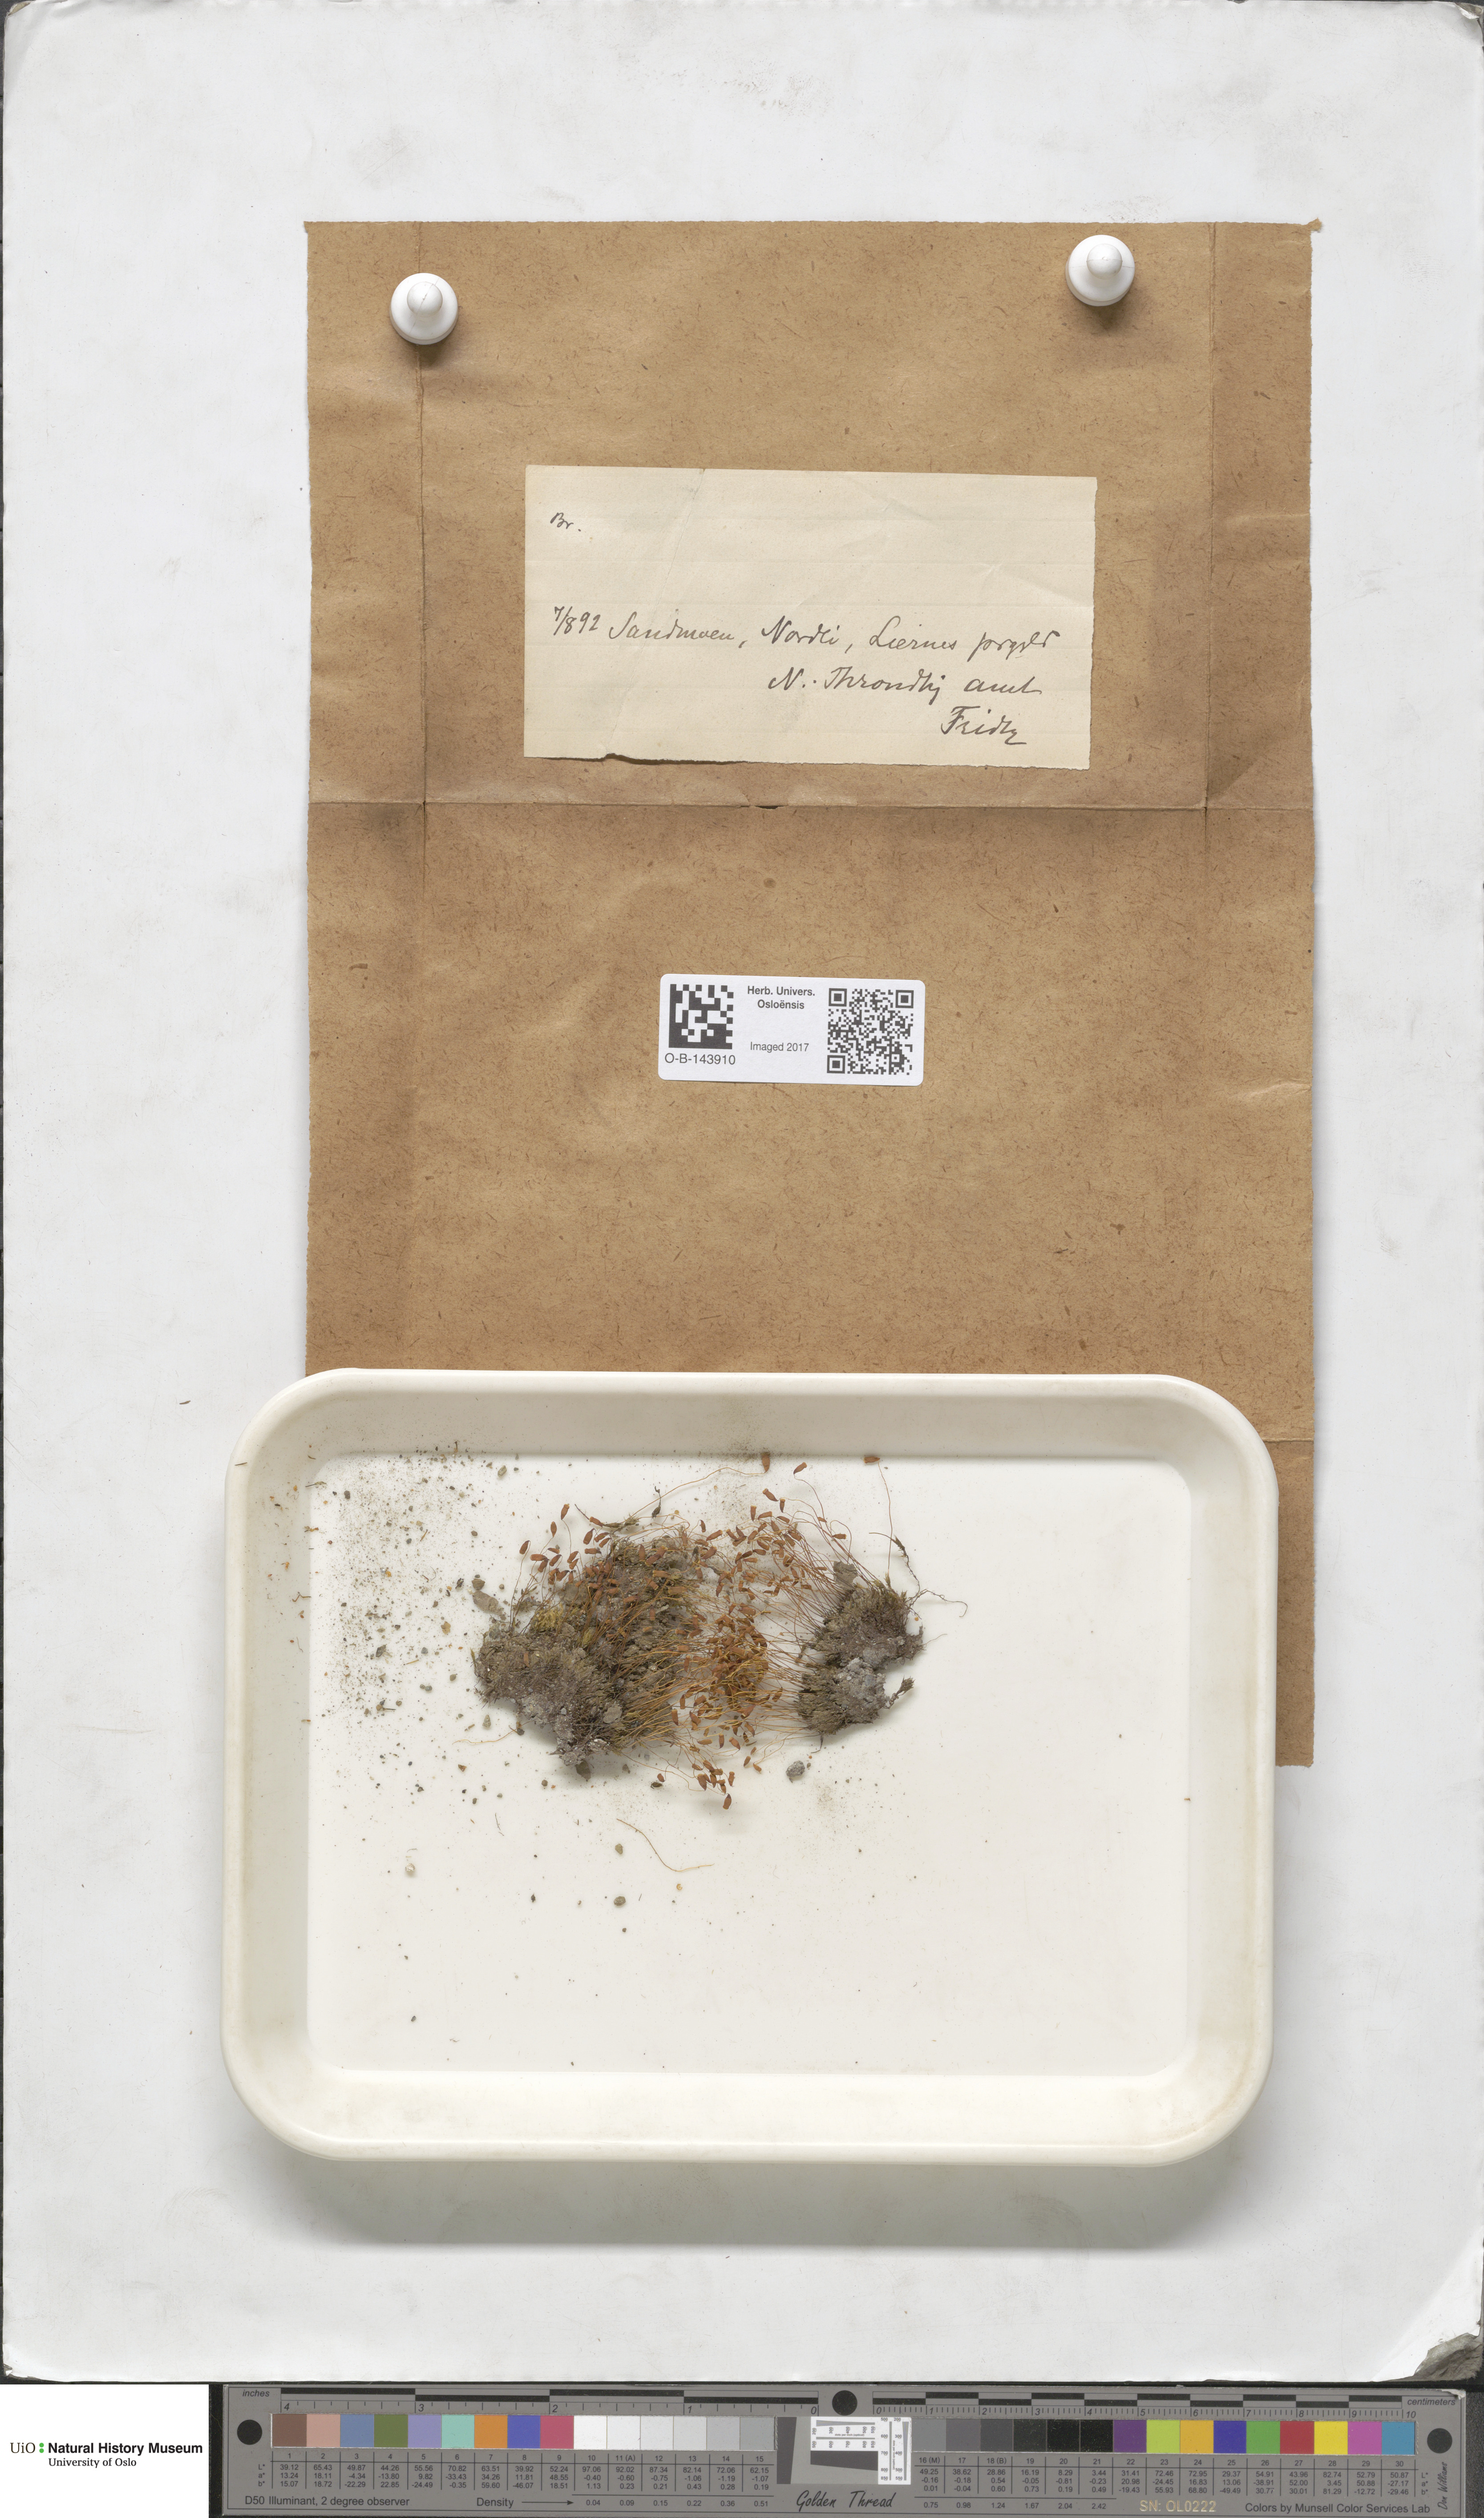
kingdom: Plantae
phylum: Bryophyta
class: Bryopsida
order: Bryales
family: Bryaceae
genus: Bryum
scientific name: Bryum
